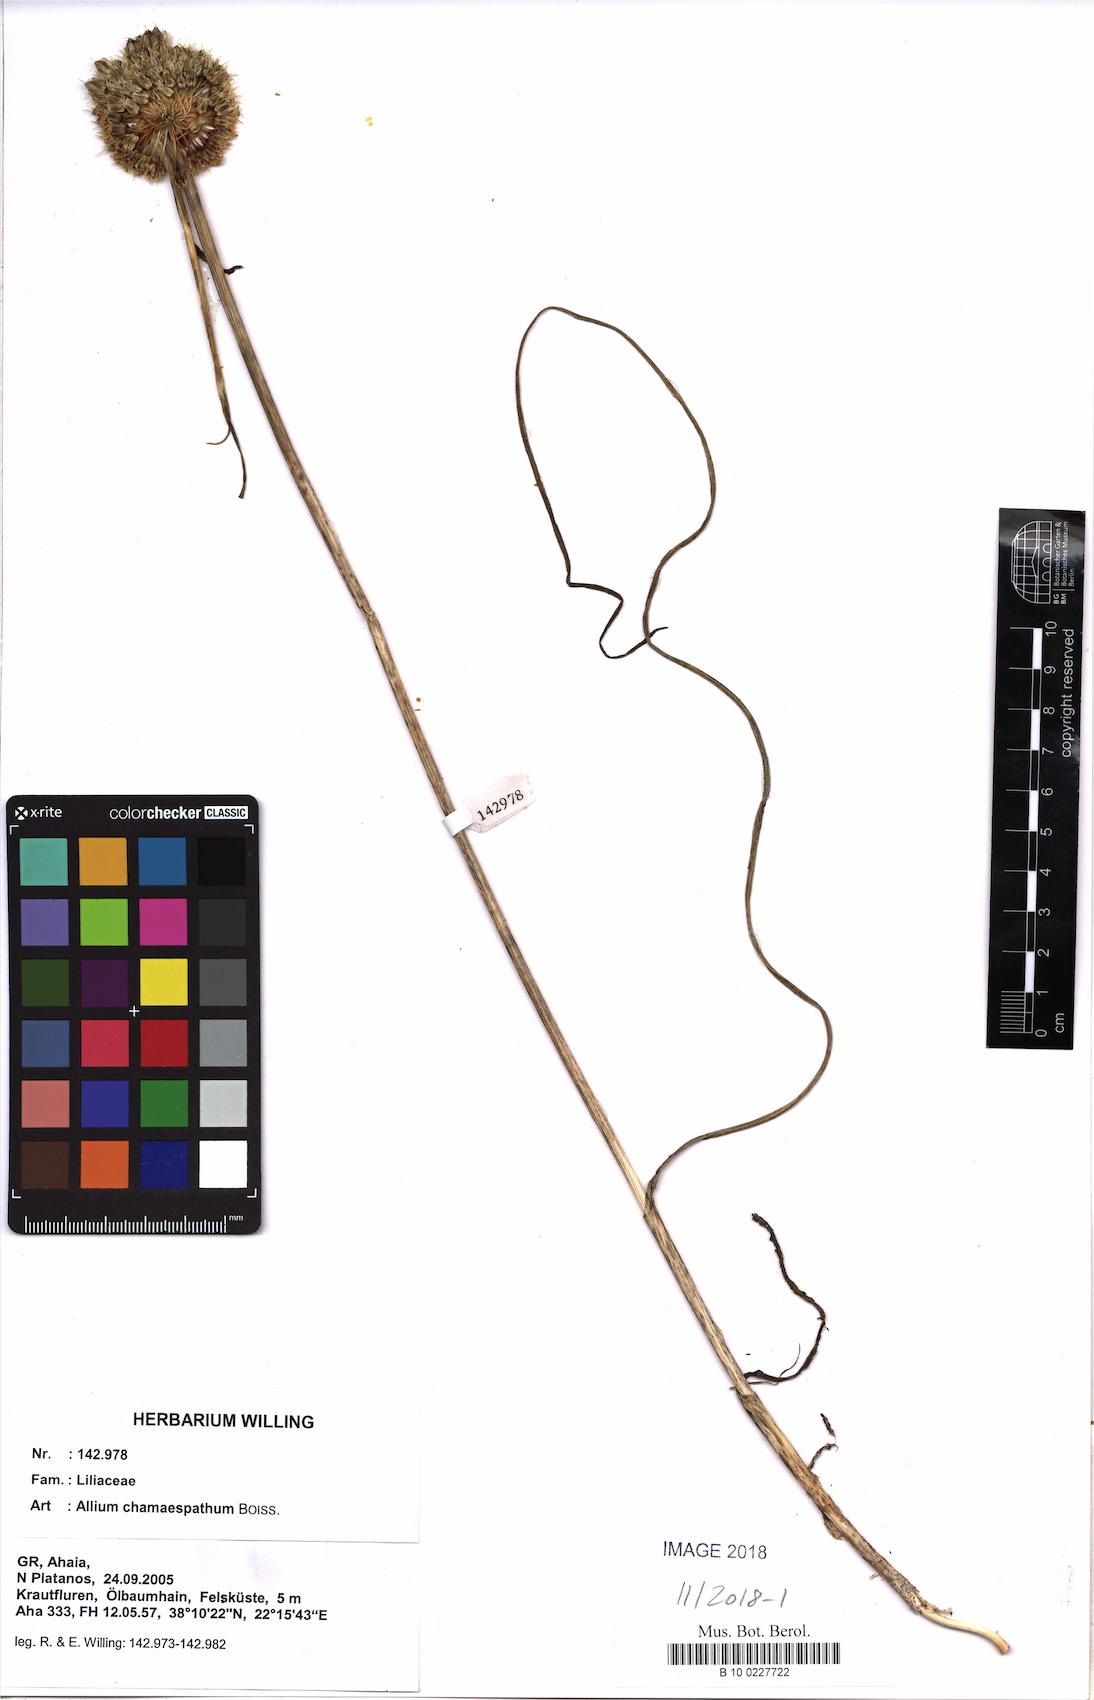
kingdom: Plantae
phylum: Tracheophyta
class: Liliopsida
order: Asparagales
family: Amaryllidaceae
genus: Allium
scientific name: Allium chamaespathum
